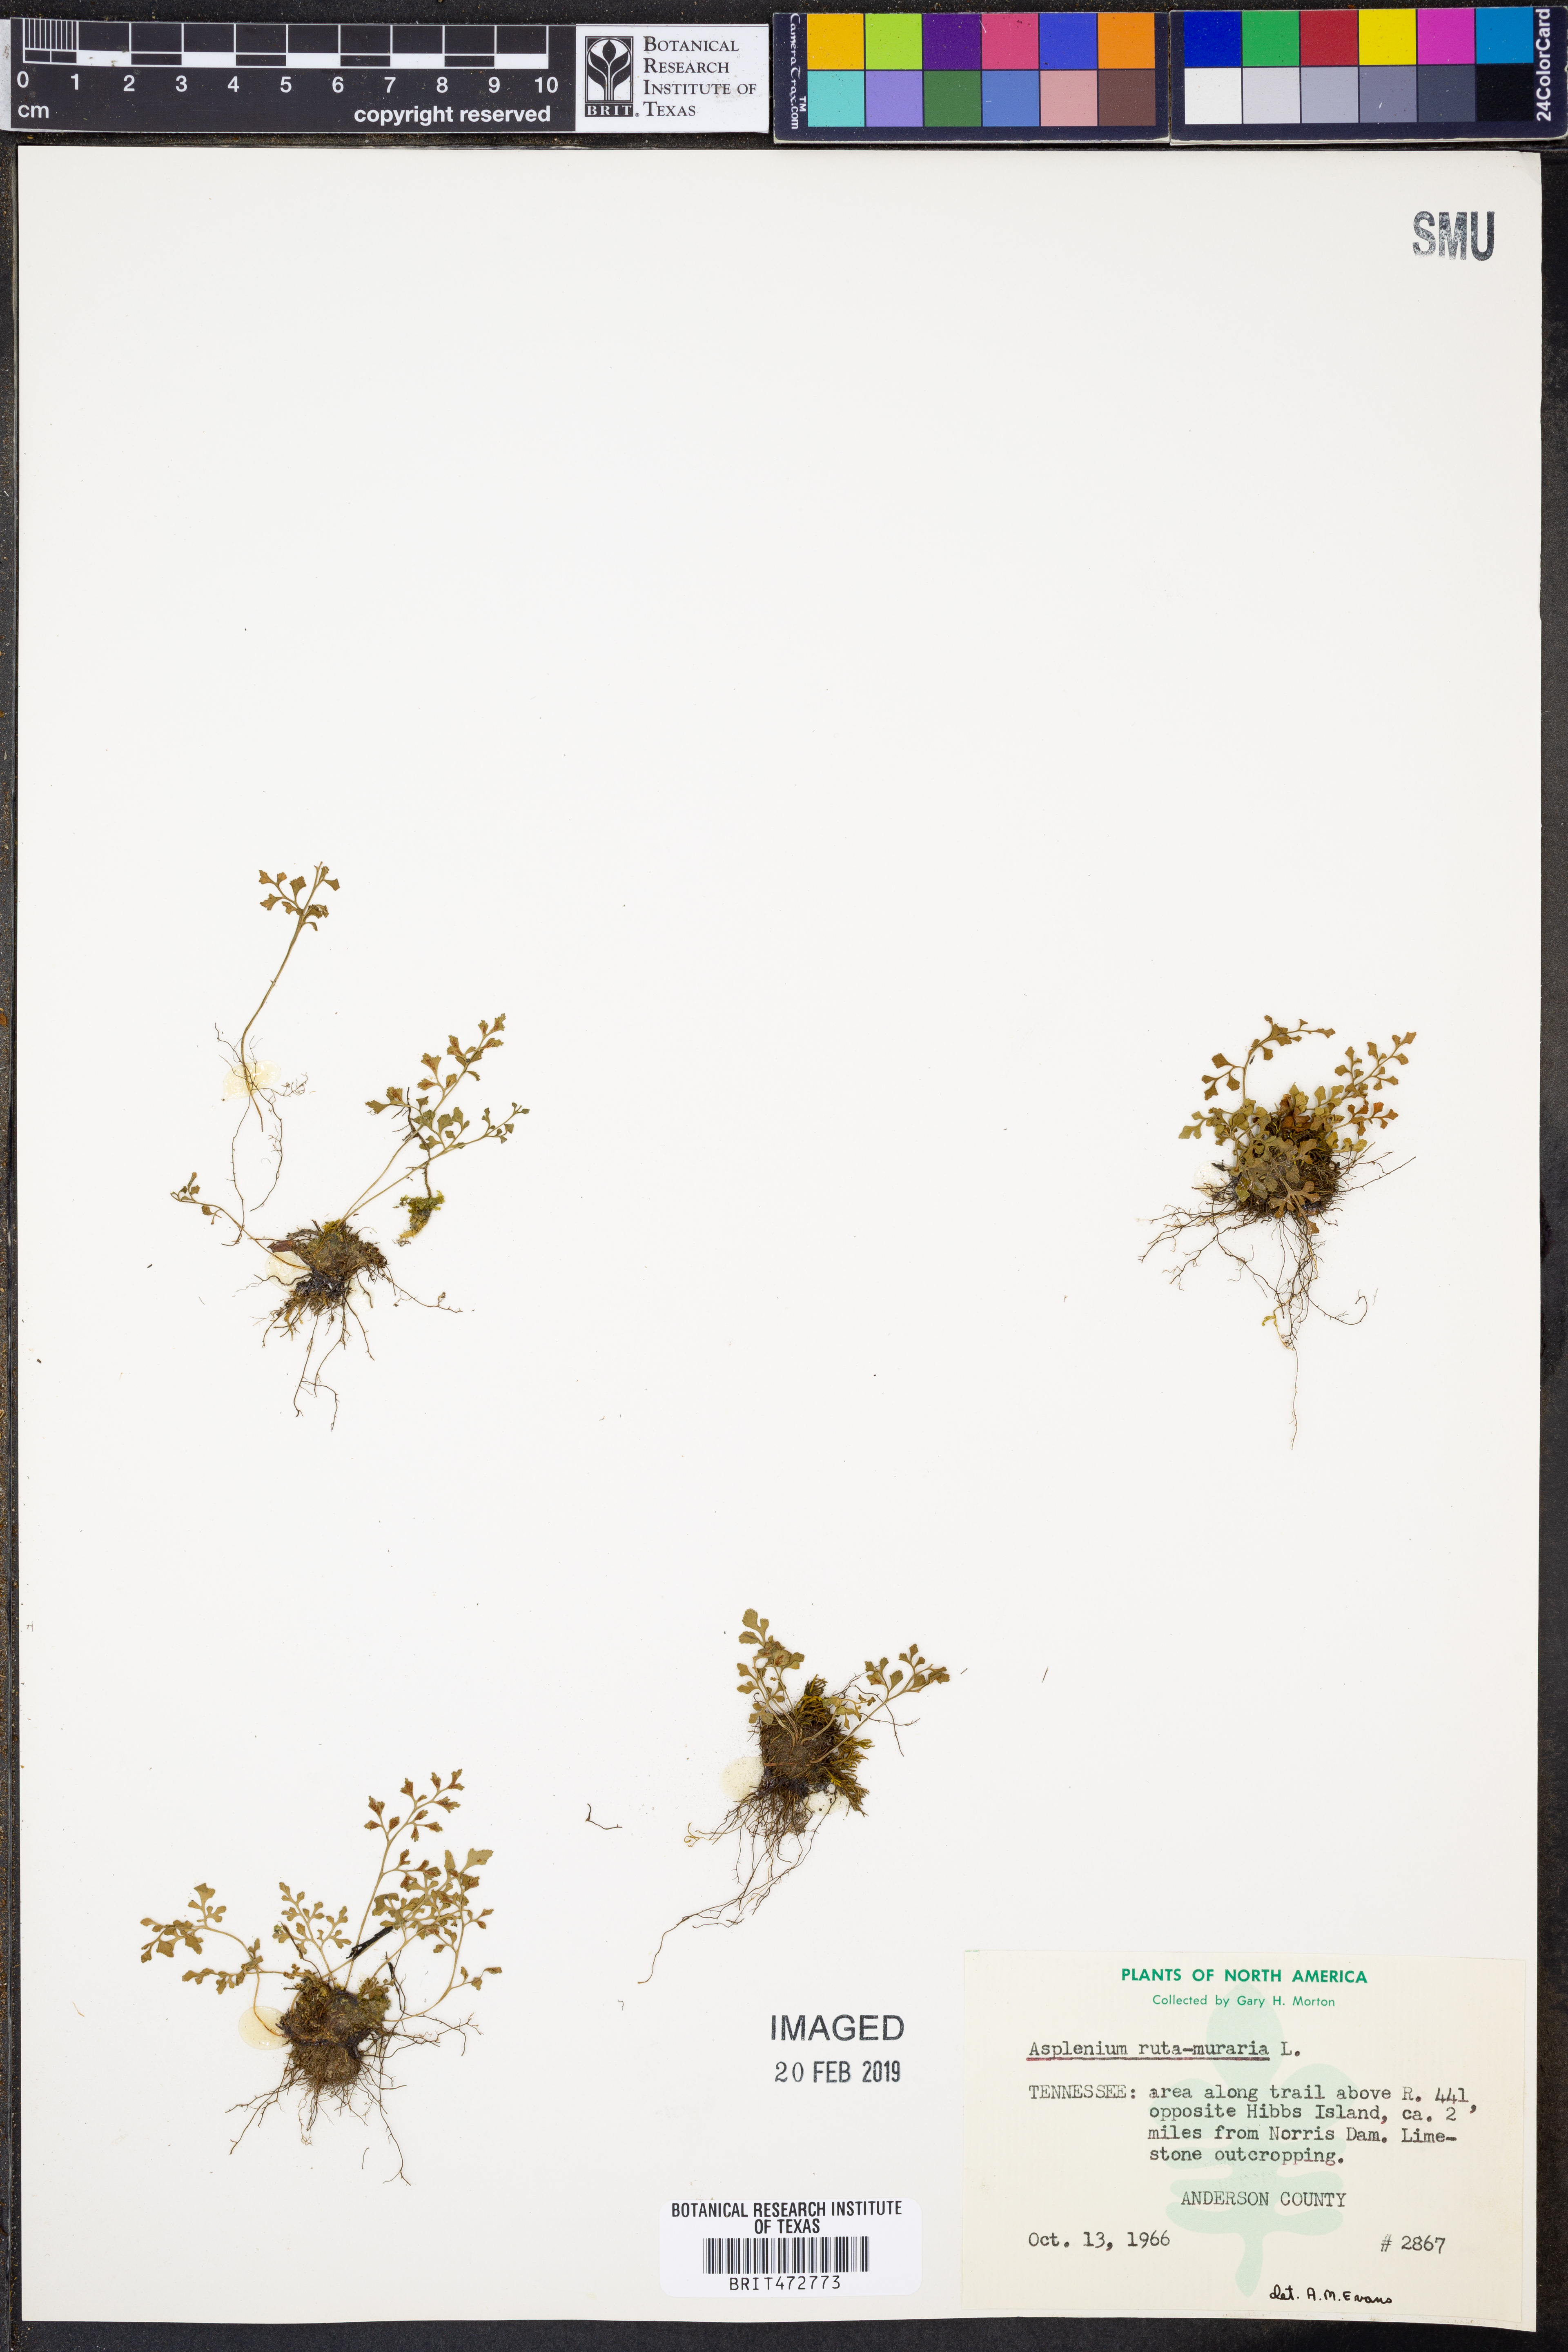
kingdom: Plantae
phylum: Tracheophyta
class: Polypodiopsida
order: Polypodiales
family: Aspleniaceae
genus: Asplenium
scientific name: Asplenium ruta-muraria
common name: Wall-rue
